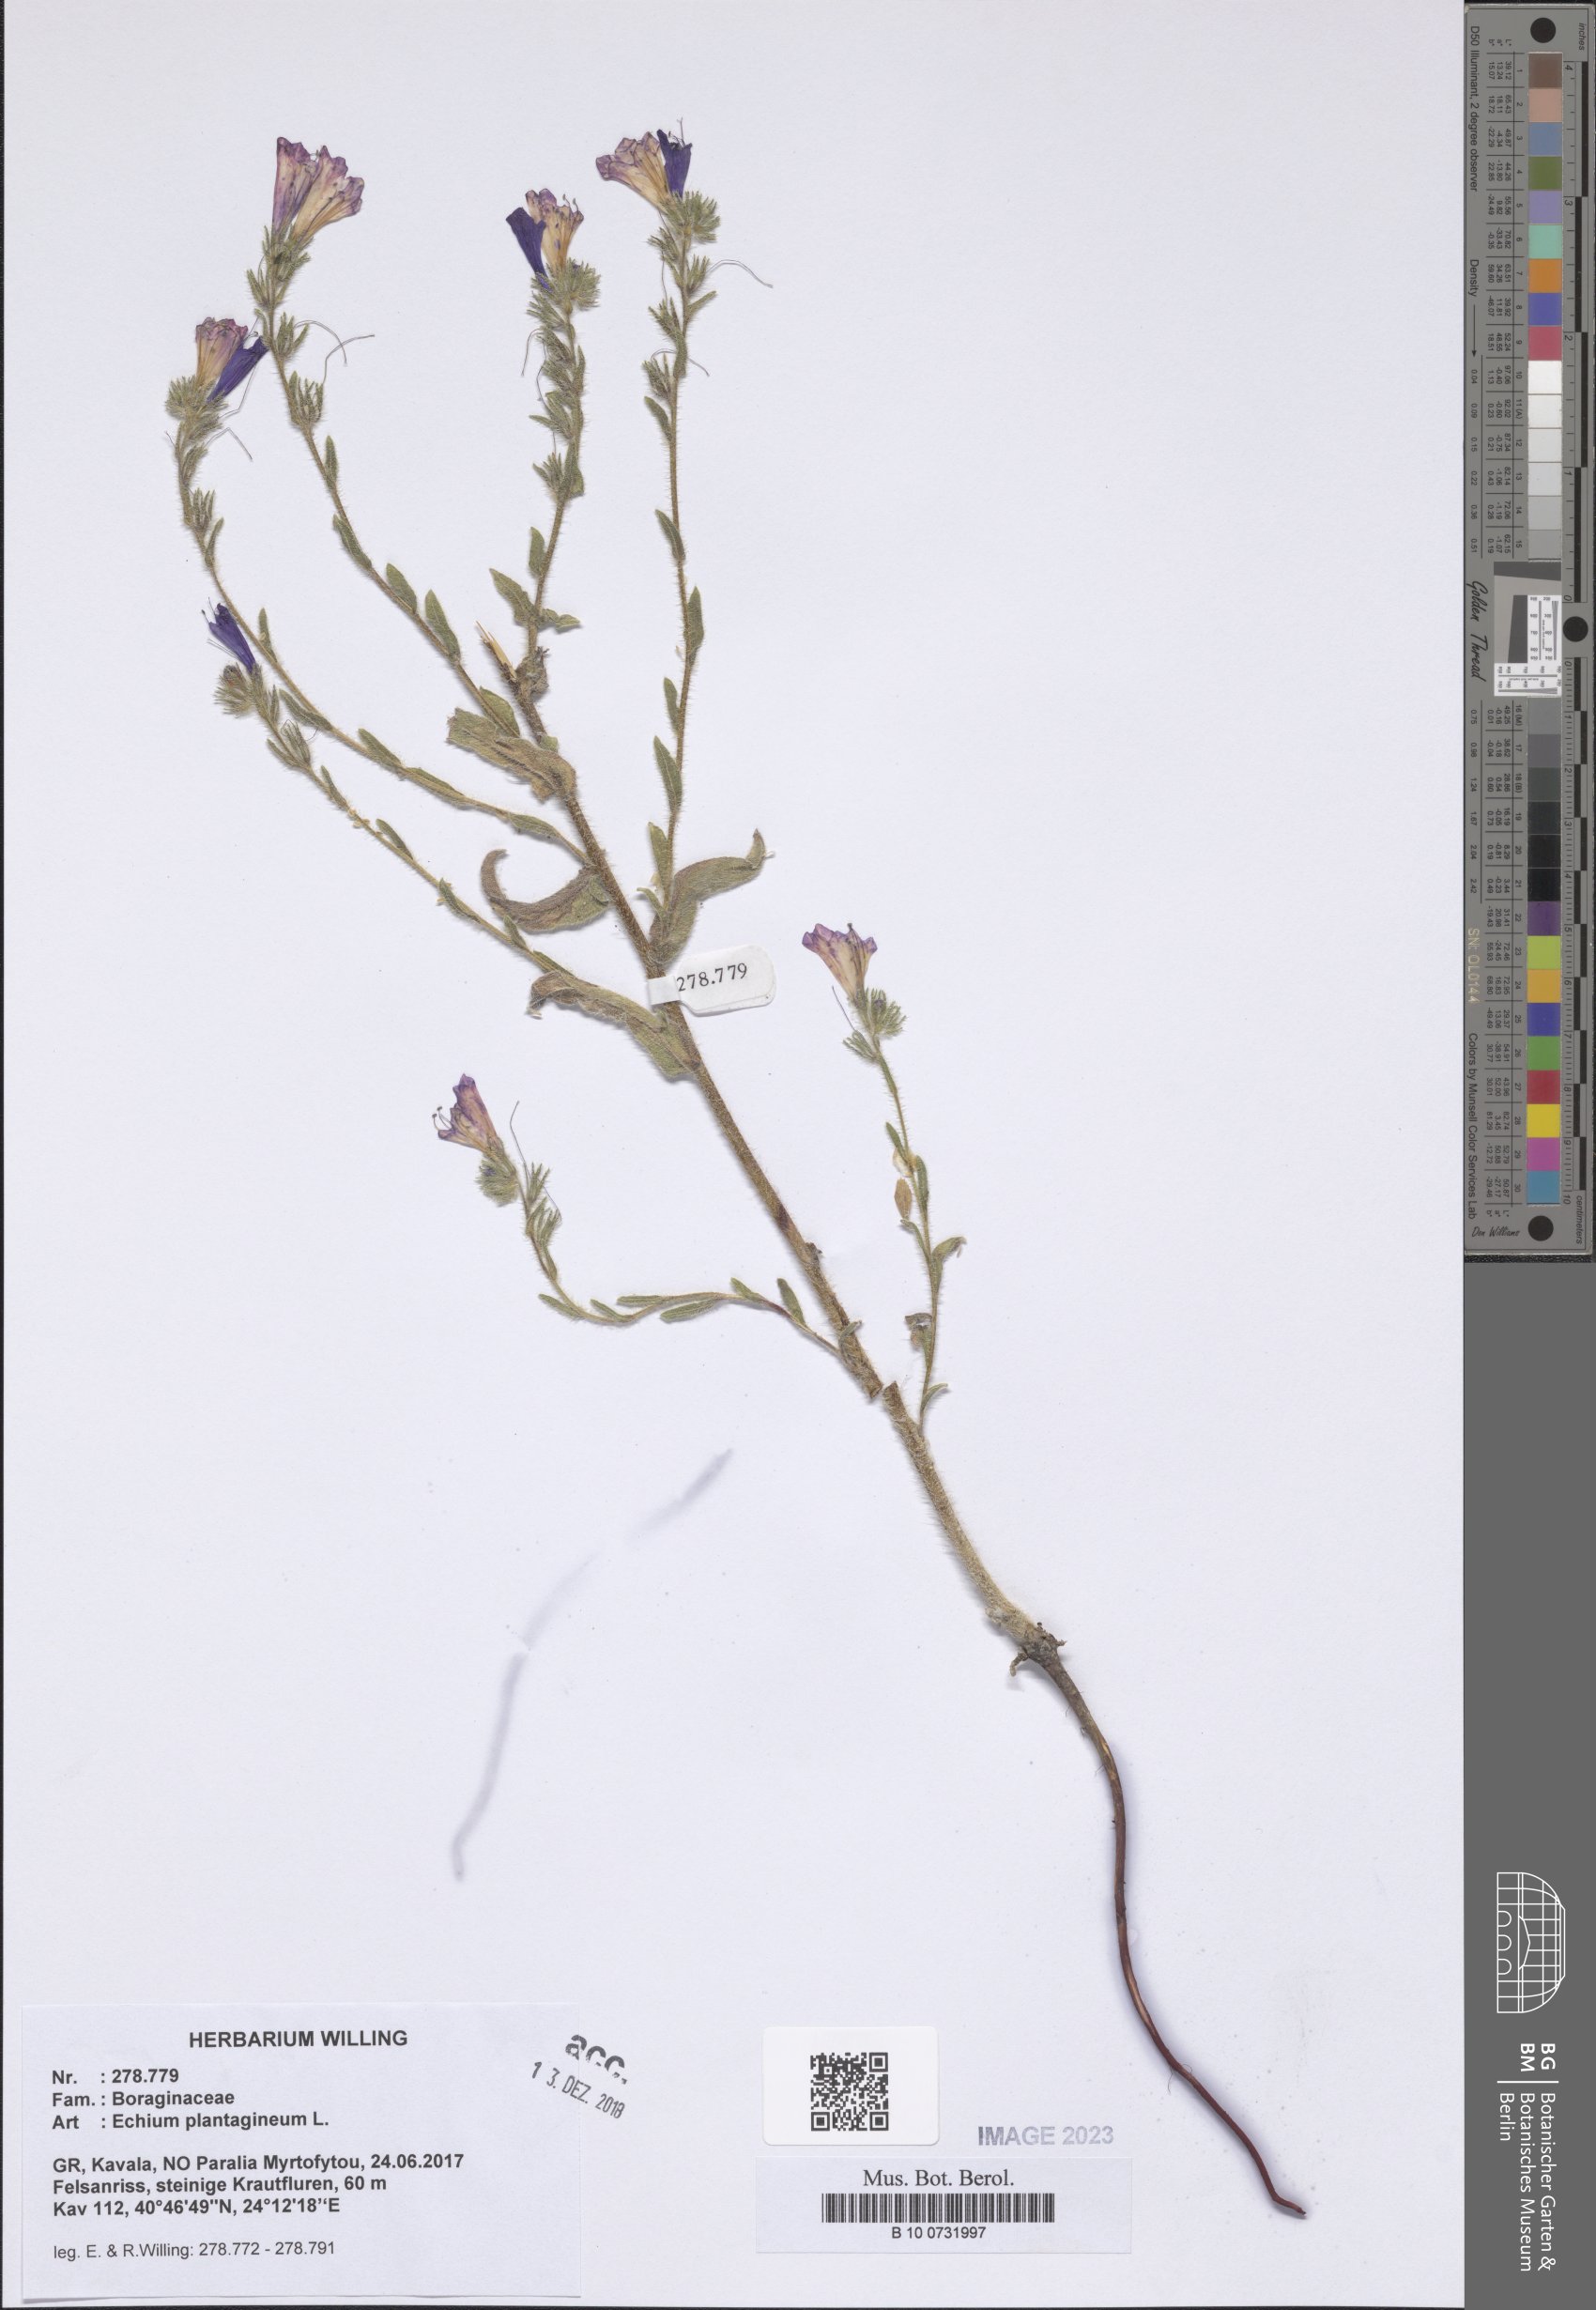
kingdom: Plantae
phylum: Tracheophyta
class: Magnoliopsida
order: Boraginales
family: Boraginaceae
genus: Echium
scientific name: Echium plantagineum
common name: Purple viper's-bugloss
